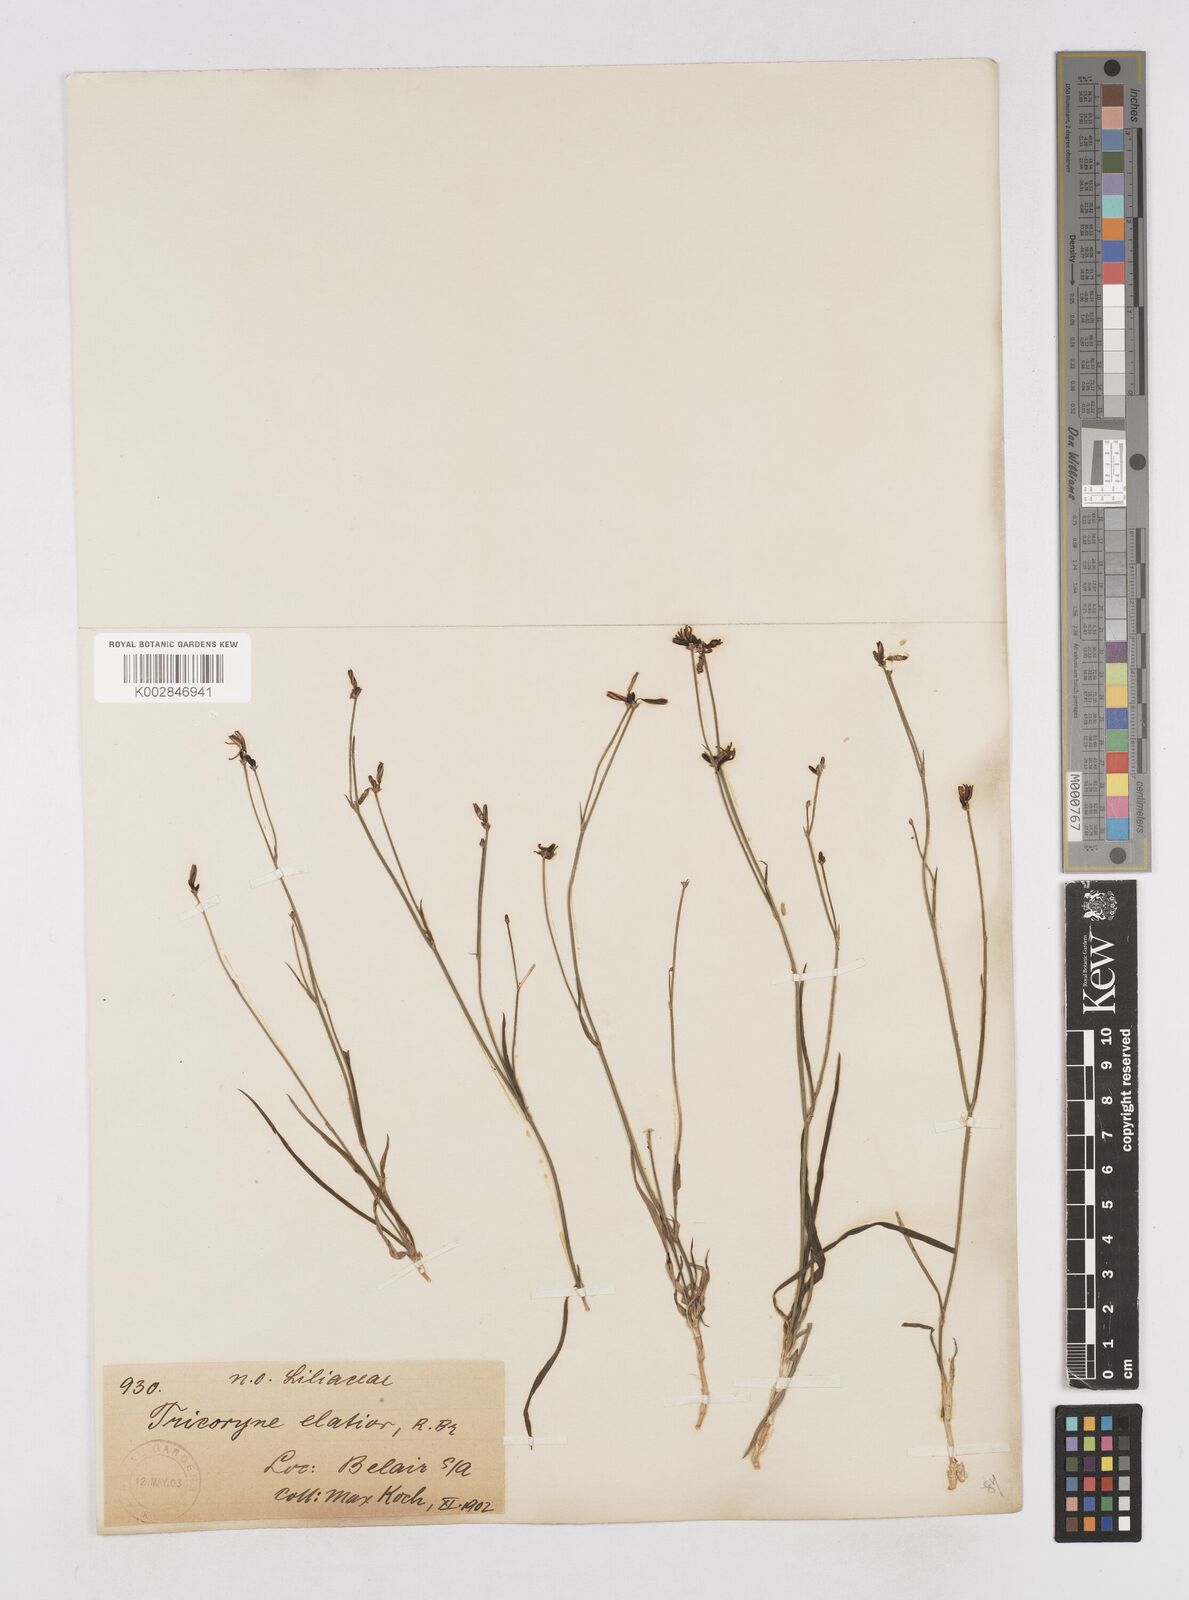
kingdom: Plantae
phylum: Tracheophyta
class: Liliopsida
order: Asparagales
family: Asphodelaceae
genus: Tricoryne
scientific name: Tricoryne elatior
